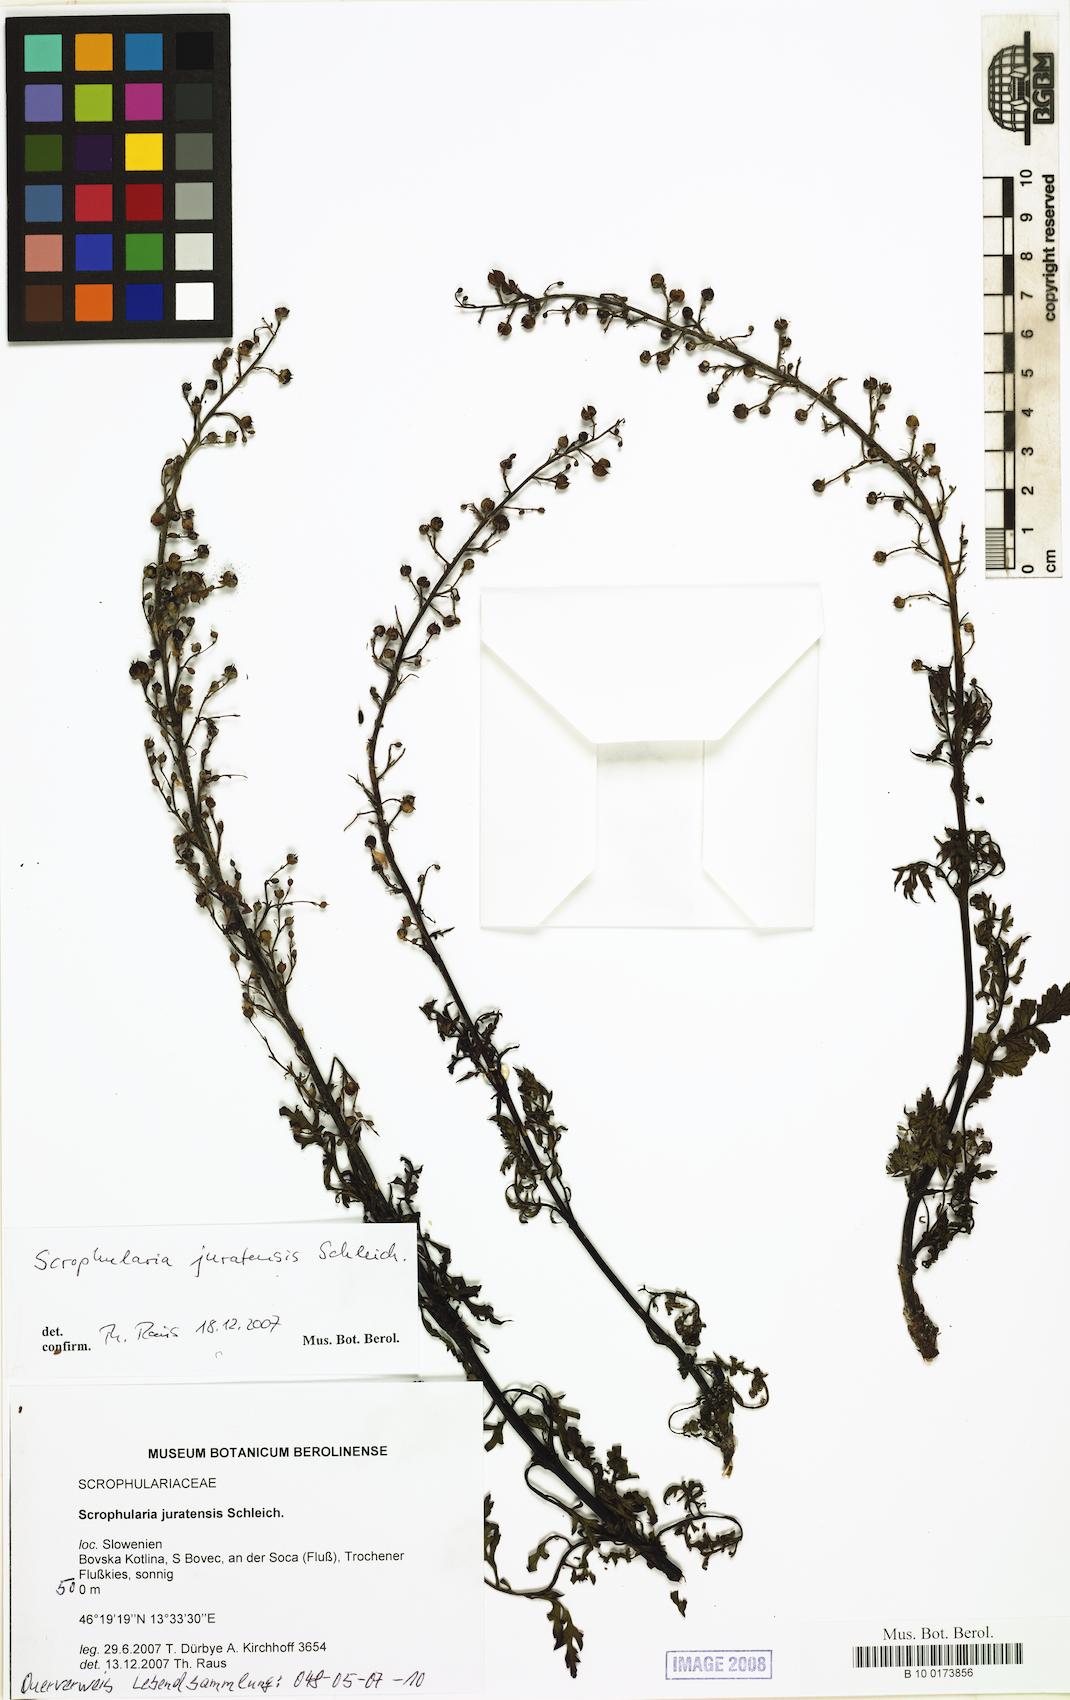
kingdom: Plantae
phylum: Tracheophyta
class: Magnoliopsida
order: Lamiales
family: Scrophulariaceae
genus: Scrophularia
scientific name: Scrophularia canina
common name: French figwort
